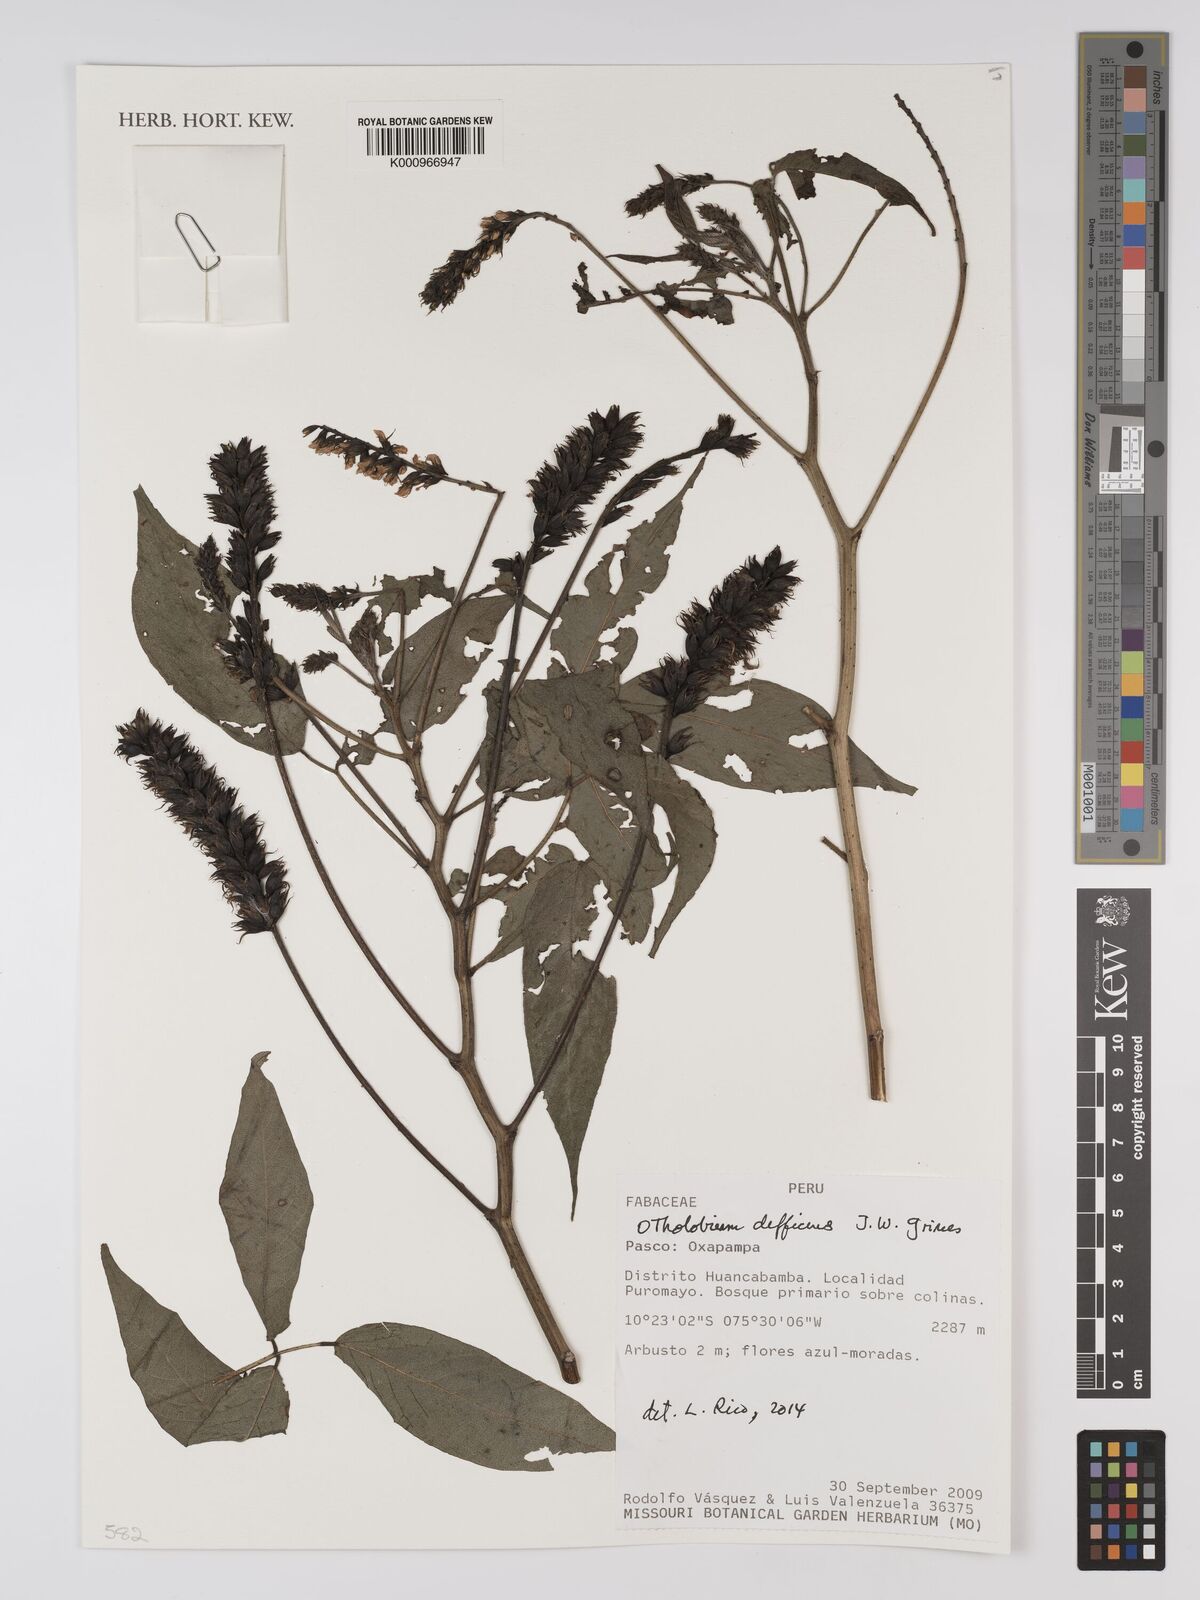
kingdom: Plantae
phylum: Tracheophyta
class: Magnoliopsida
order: Fabales
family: Fabaceae
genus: Psoralea
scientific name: Psoralea Otholobium diffidens
